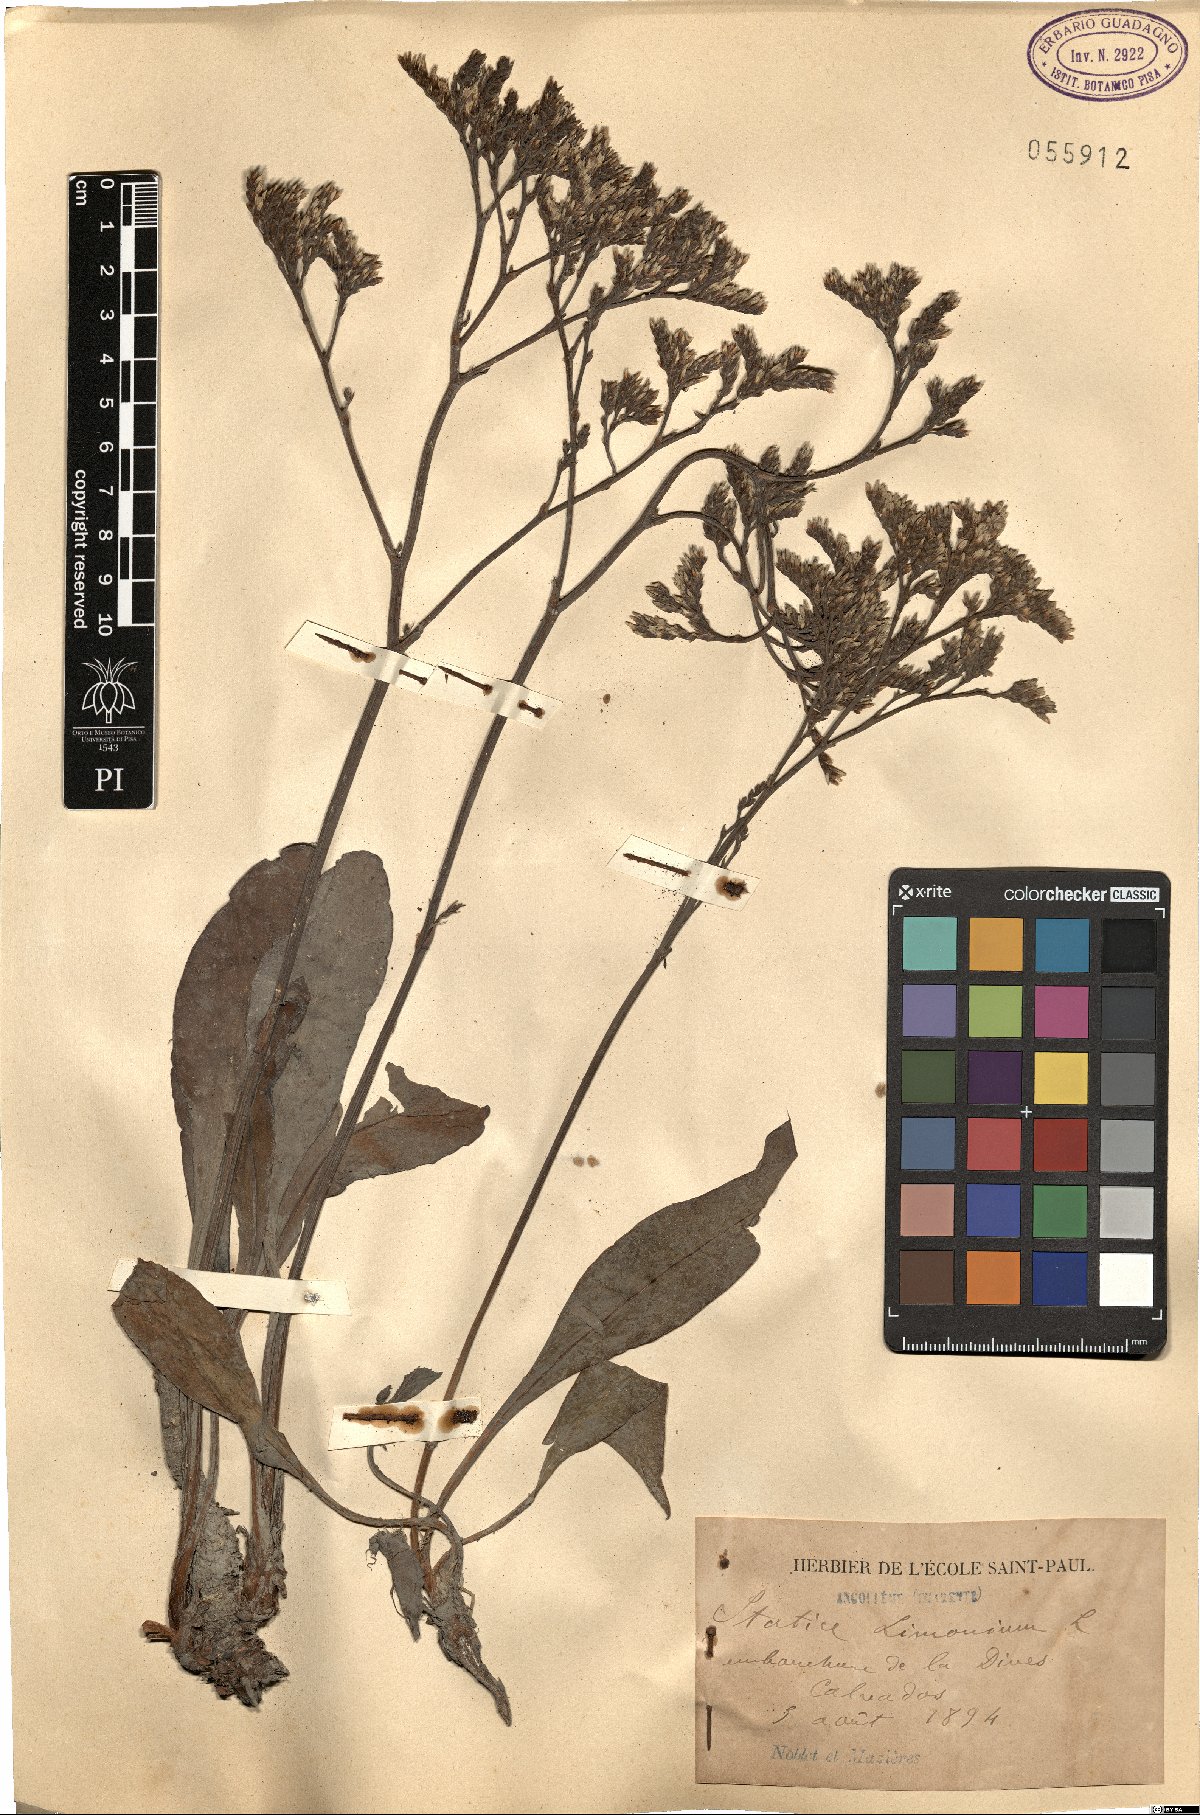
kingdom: Plantae
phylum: Tracheophyta
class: Magnoliopsida
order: Caryophyllales
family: Plumbaginaceae
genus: Limonium
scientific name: Limonium vulgare
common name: Common sea-lavender
